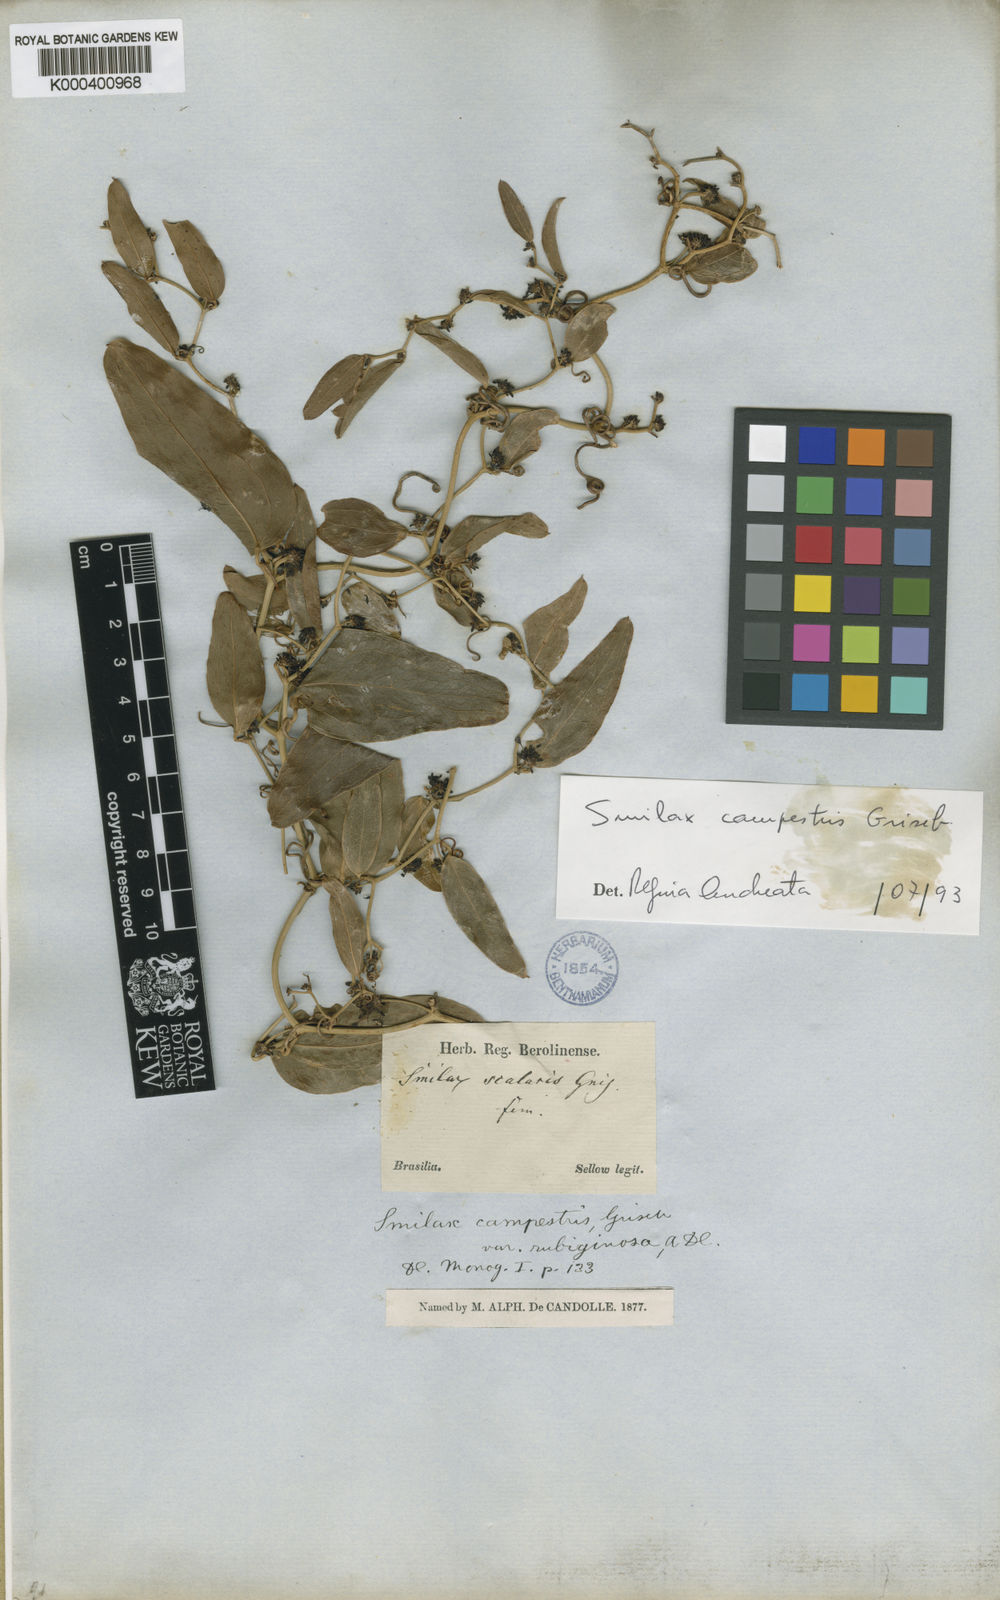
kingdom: Plantae
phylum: Tracheophyta
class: Liliopsida
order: Liliales
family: Smilacaceae
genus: Smilax
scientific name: Smilax campestris
